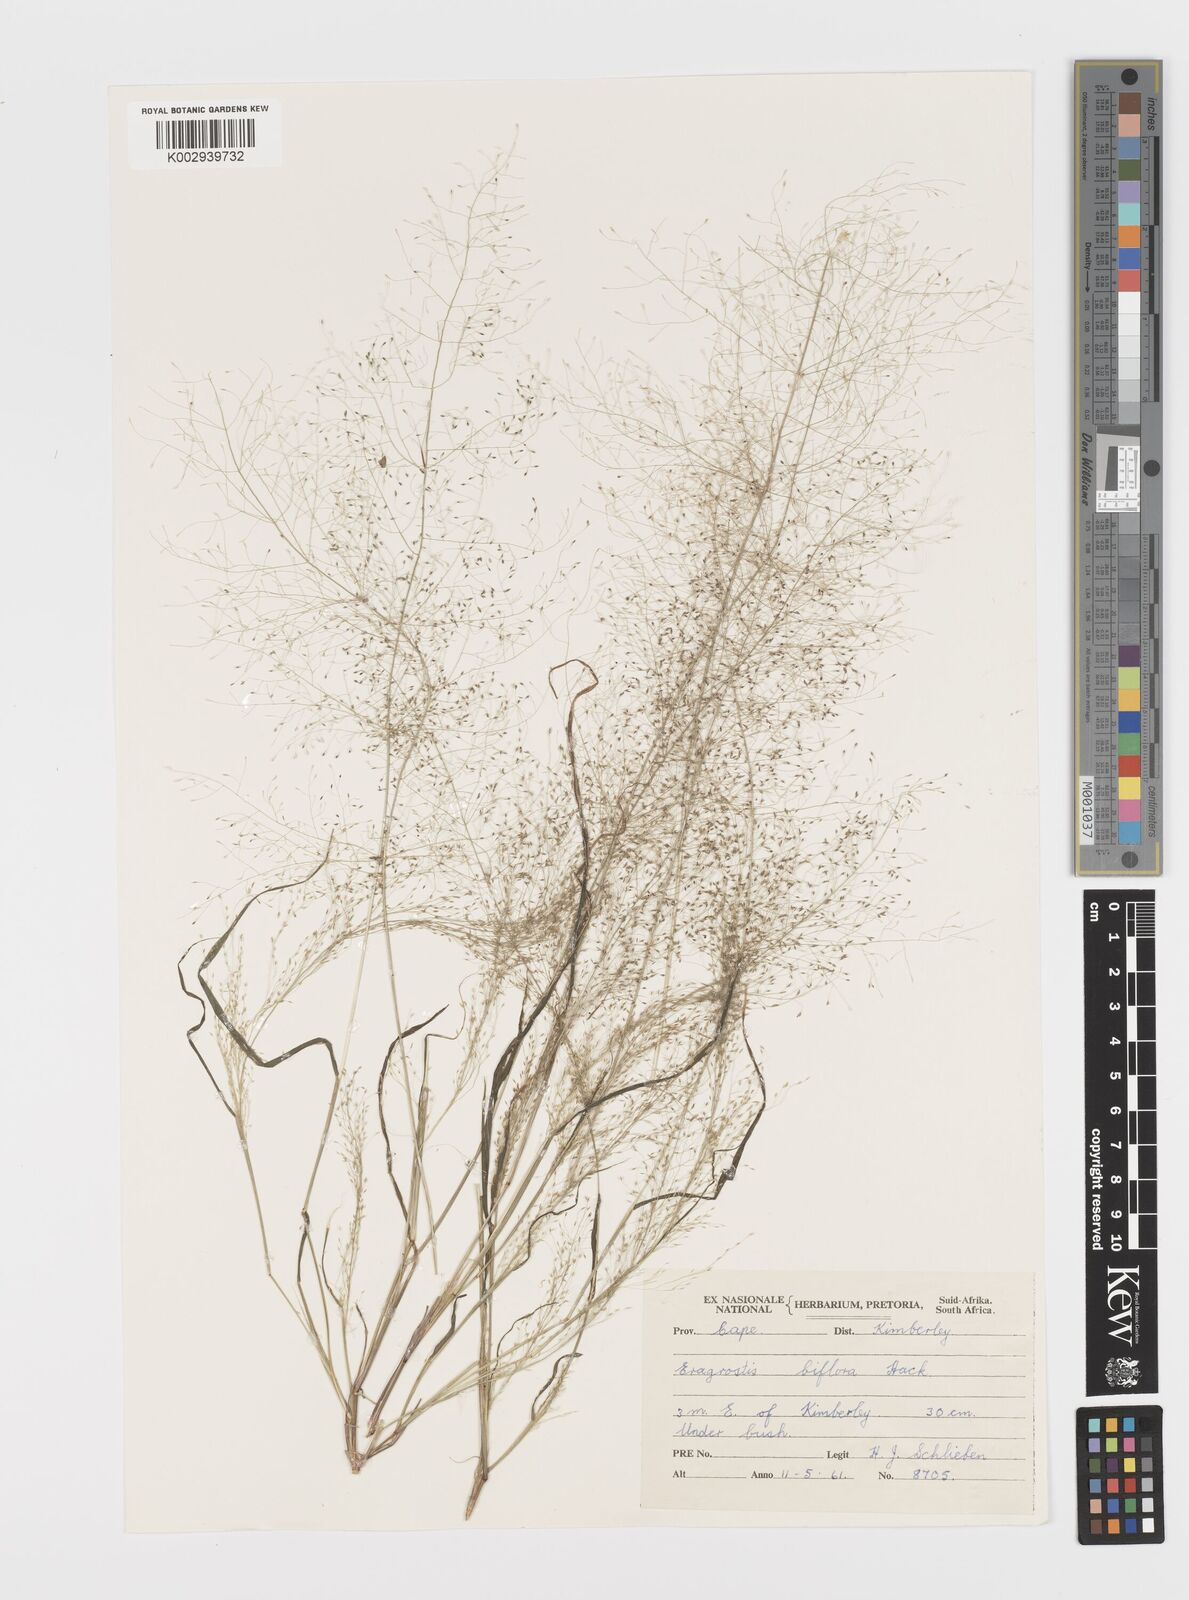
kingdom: Plantae
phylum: Tracheophyta
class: Liliopsida
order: Poales
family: Poaceae
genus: Eragrostis
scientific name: Eragrostis biflora
